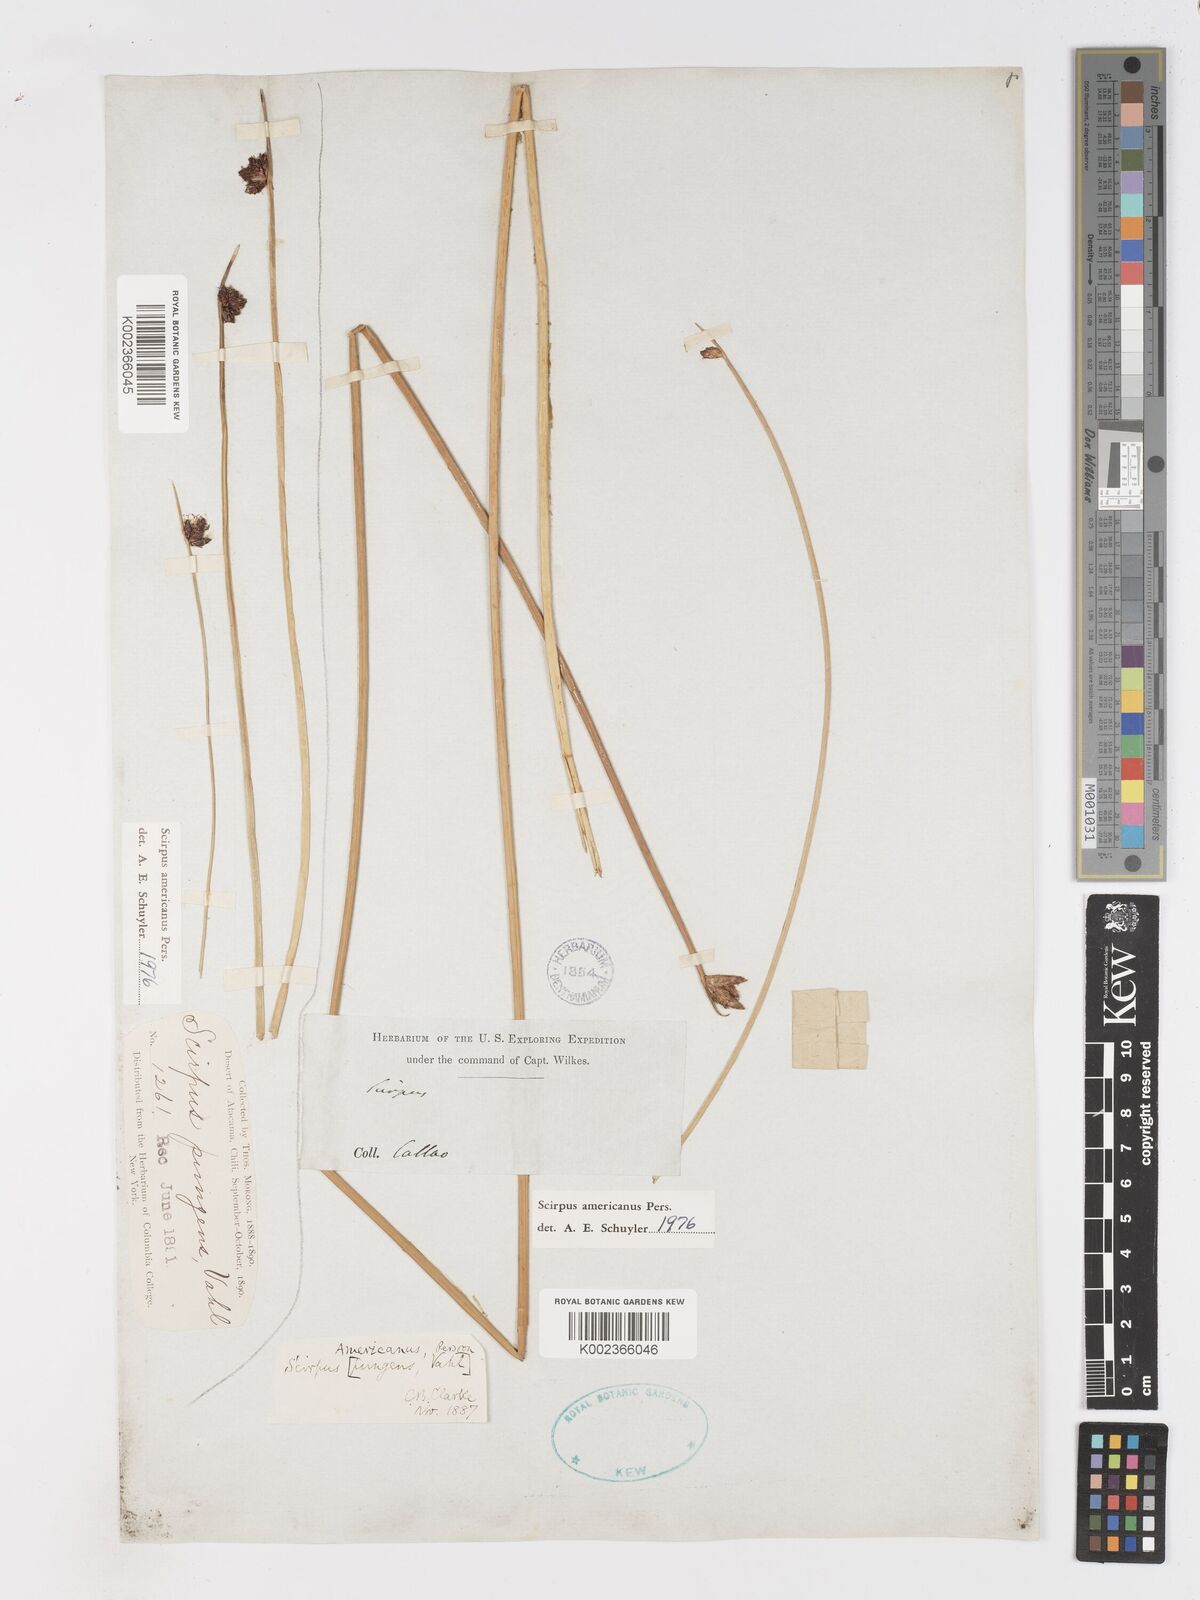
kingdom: Plantae
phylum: Tracheophyta
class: Liliopsida
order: Poales
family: Cyperaceae
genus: Schoenoplectus
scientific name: Schoenoplectus americanus
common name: American three-square bulrush
